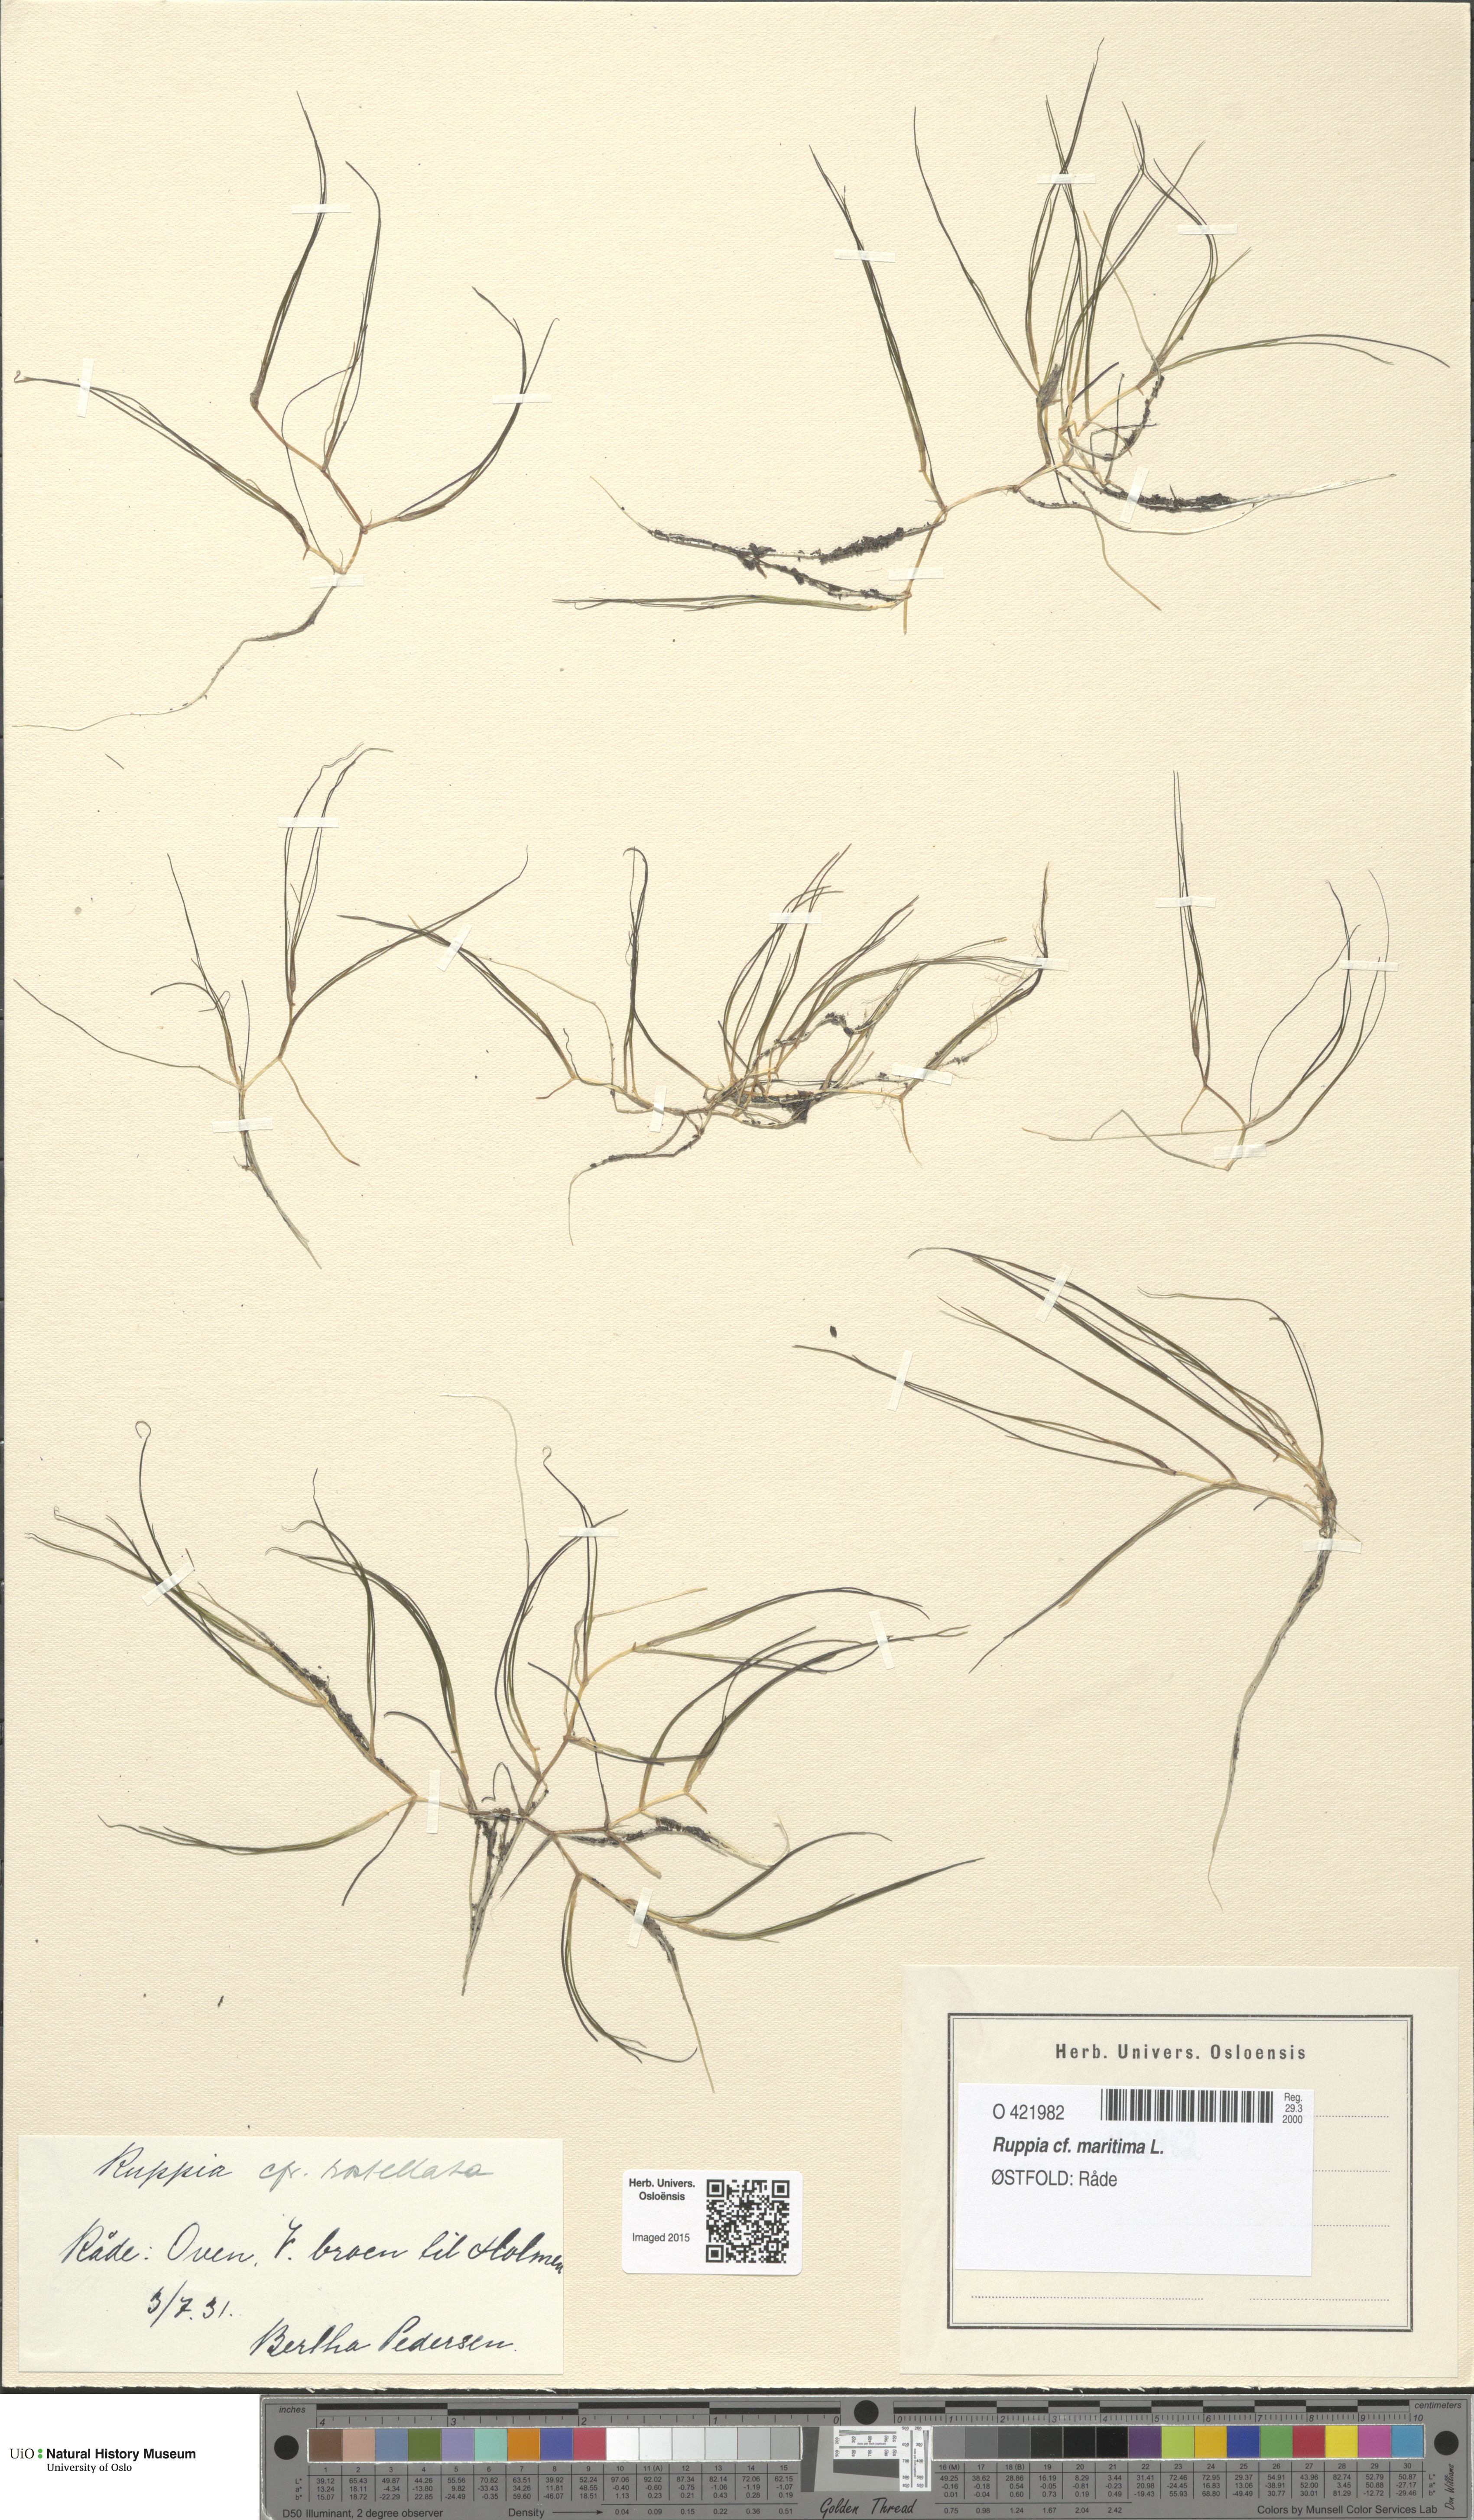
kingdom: Plantae
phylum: Tracheophyta
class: Liliopsida
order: Alismatales
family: Ruppiaceae
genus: Ruppia
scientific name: Ruppia maritima
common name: Beaked tasselweed
